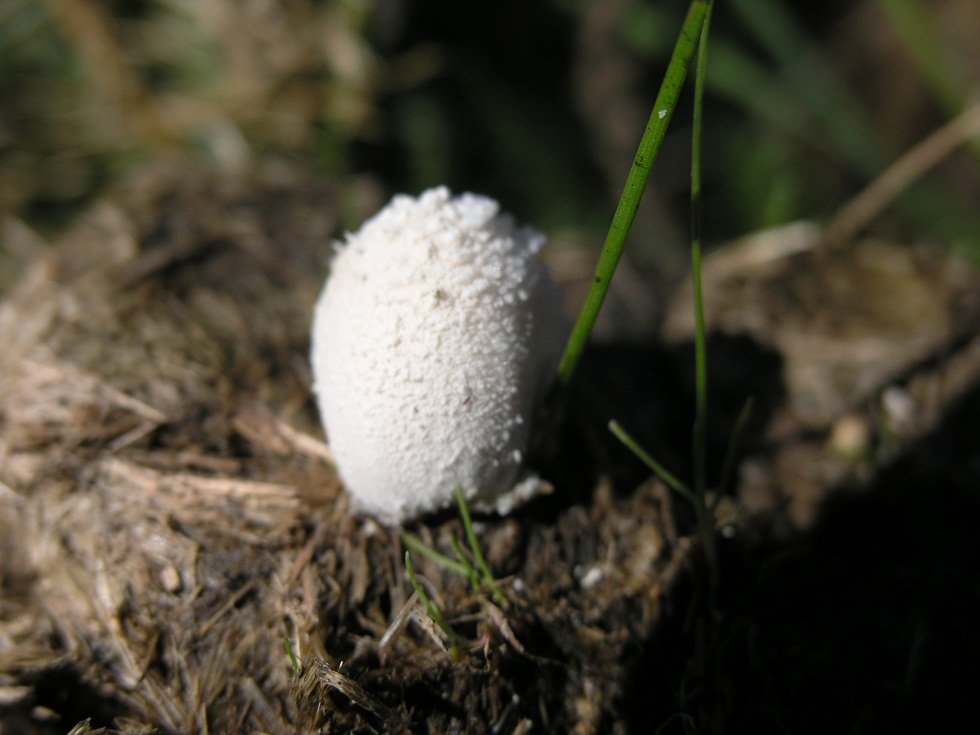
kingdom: Fungi
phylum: Basidiomycota
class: Agaricomycetes
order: Agaricales
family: Psathyrellaceae
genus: Coprinopsis
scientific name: Coprinopsis nivea
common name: snehvid blækhat
